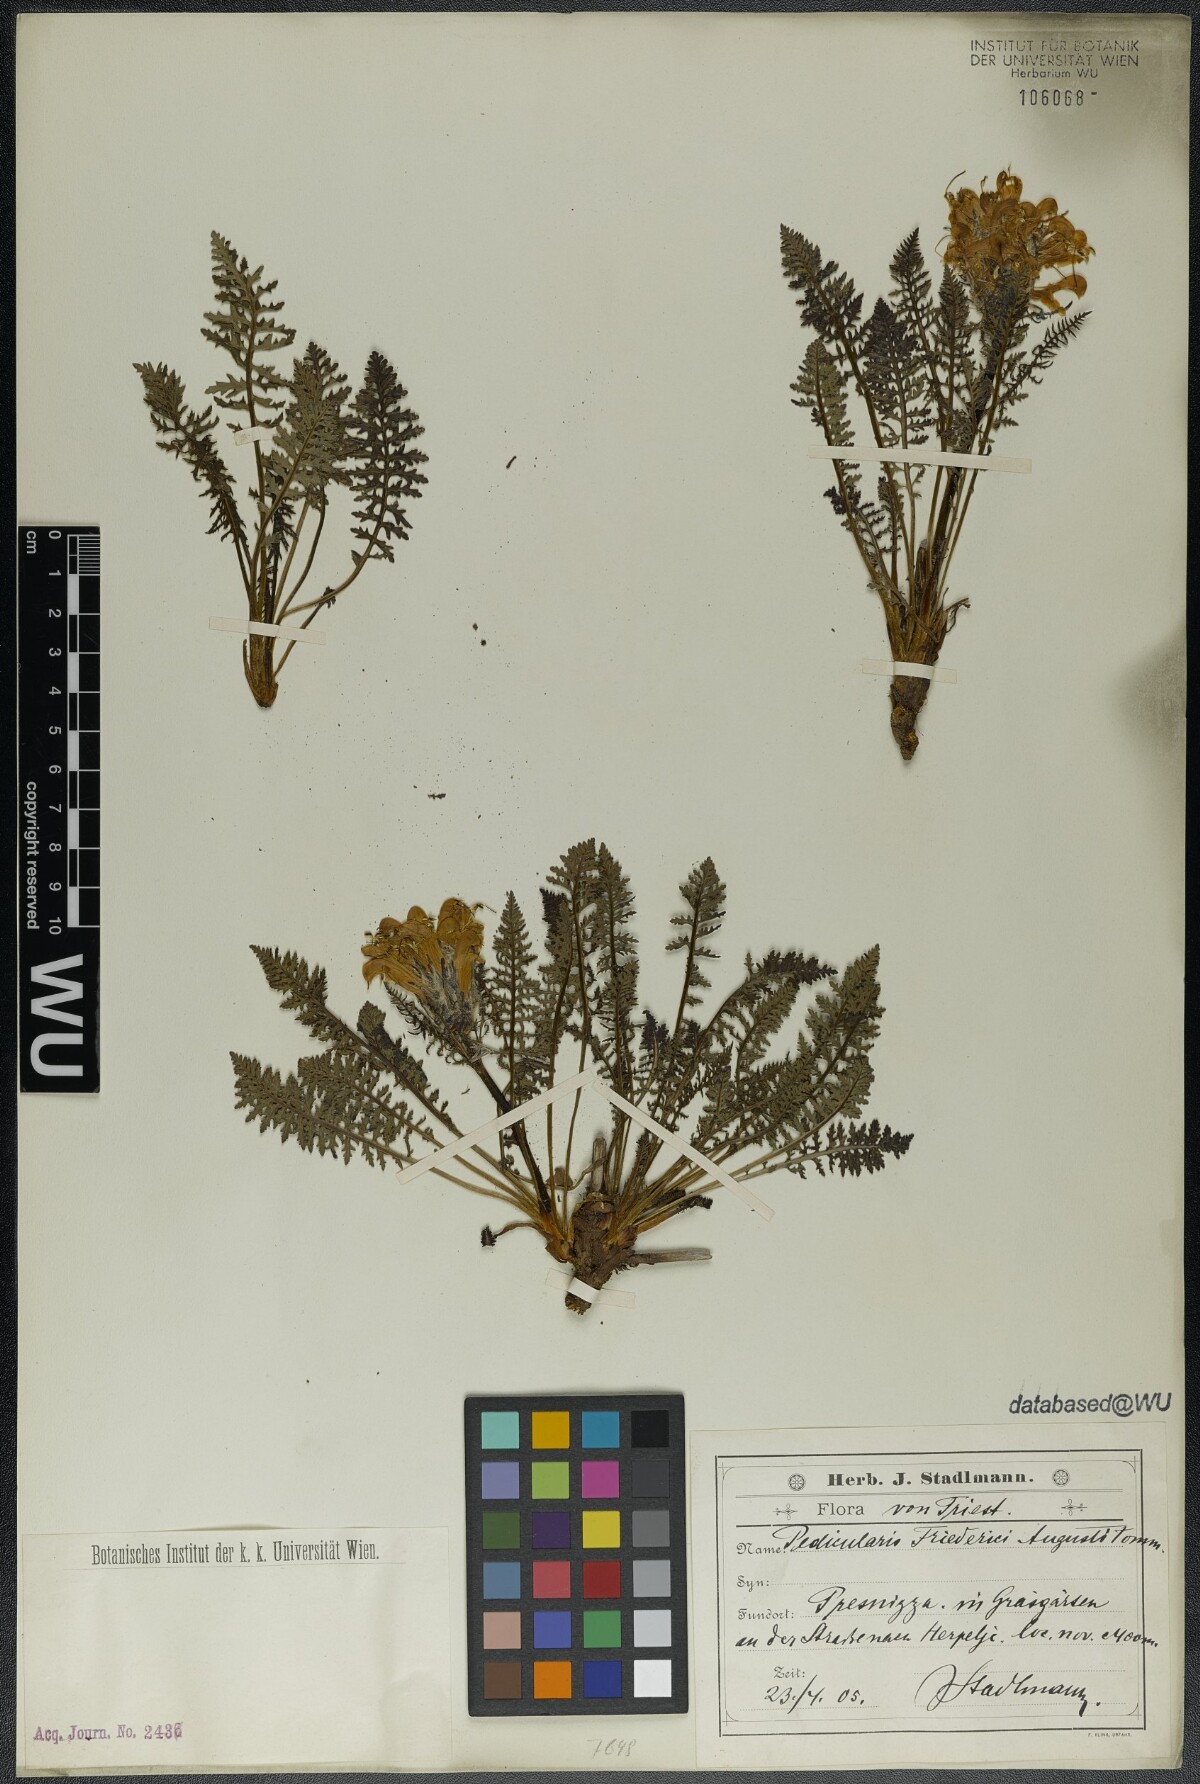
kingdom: Plantae
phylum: Tracheophyta
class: Magnoliopsida
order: Lamiales
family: Orobanchaceae
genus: Pedicularis
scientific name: Pedicularis friderici-augusti
